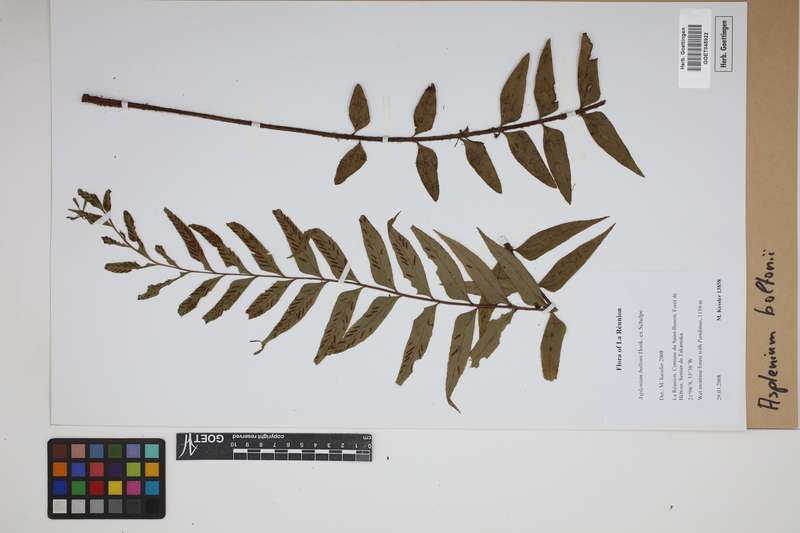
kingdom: Plantae
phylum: Tracheophyta
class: Polypodiopsida
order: Polypodiales
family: Aspleniaceae
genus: Asplenium
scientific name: Asplenium boltonii
